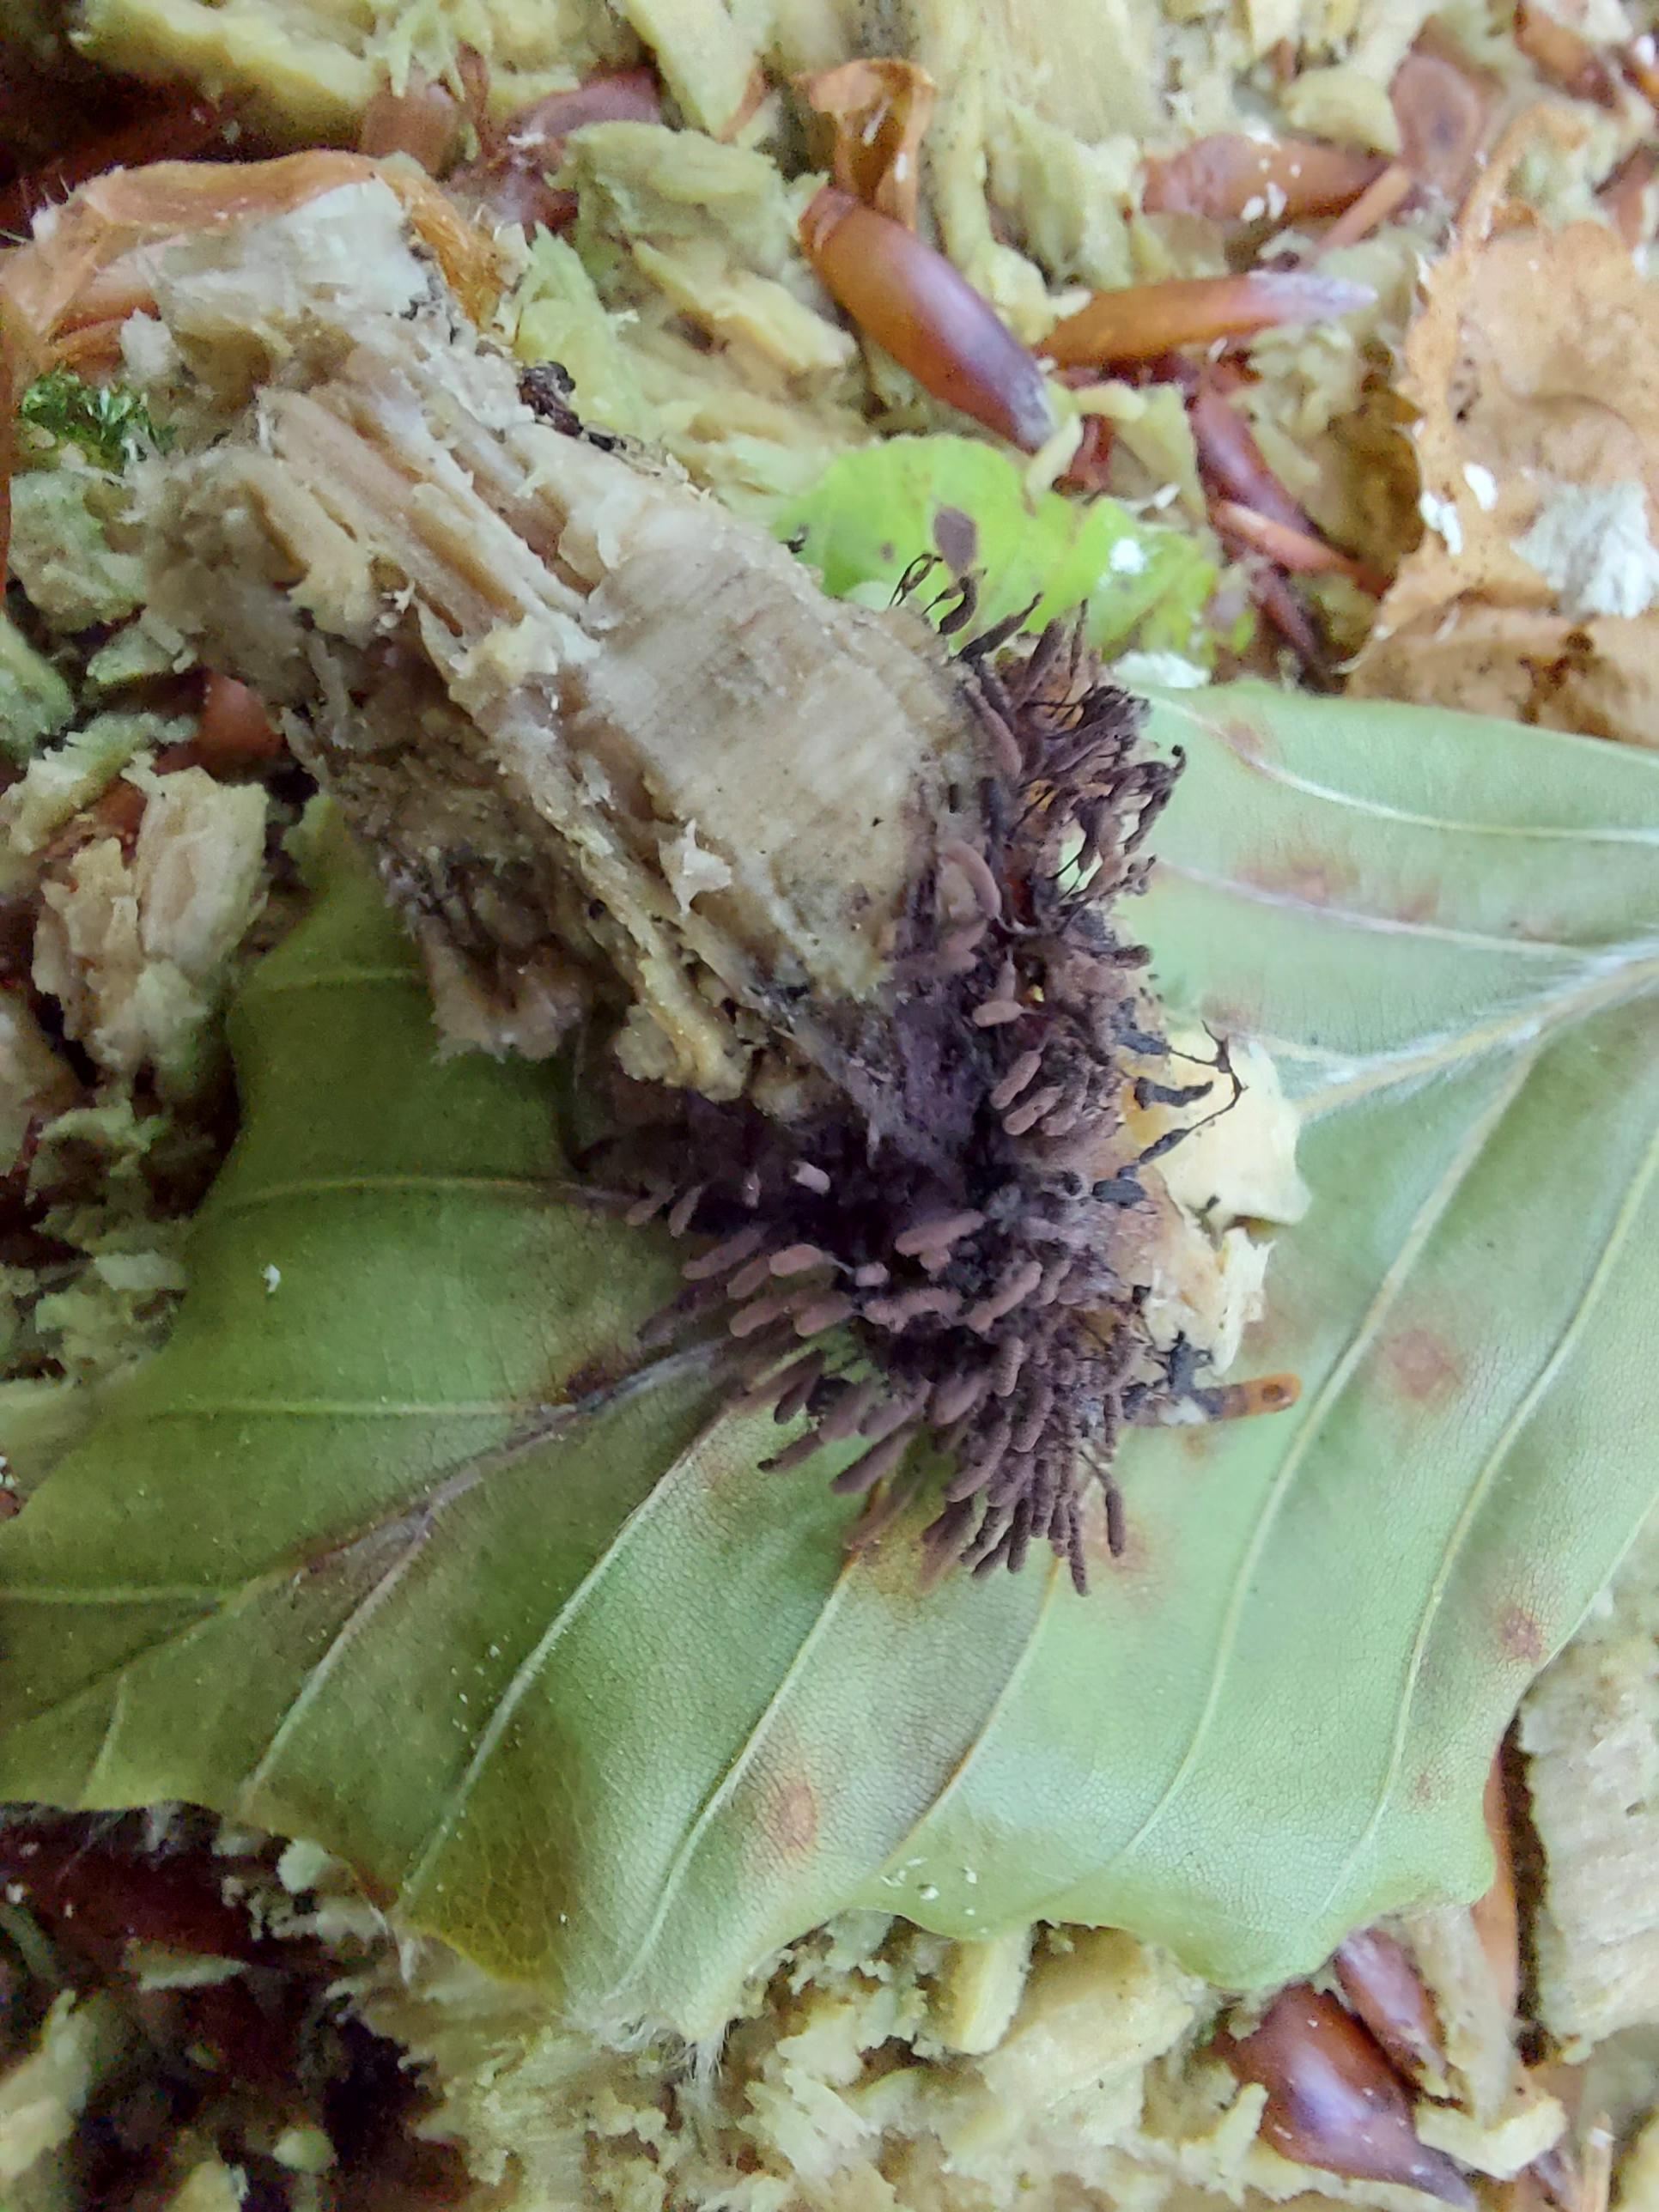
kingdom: Protozoa
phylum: Mycetozoa
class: Myxomycetes
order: Stemonitidales
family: Stemonitidaceae
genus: Stemonitopsis
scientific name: Stemonitopsis typhina
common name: skinnende støvkølle
